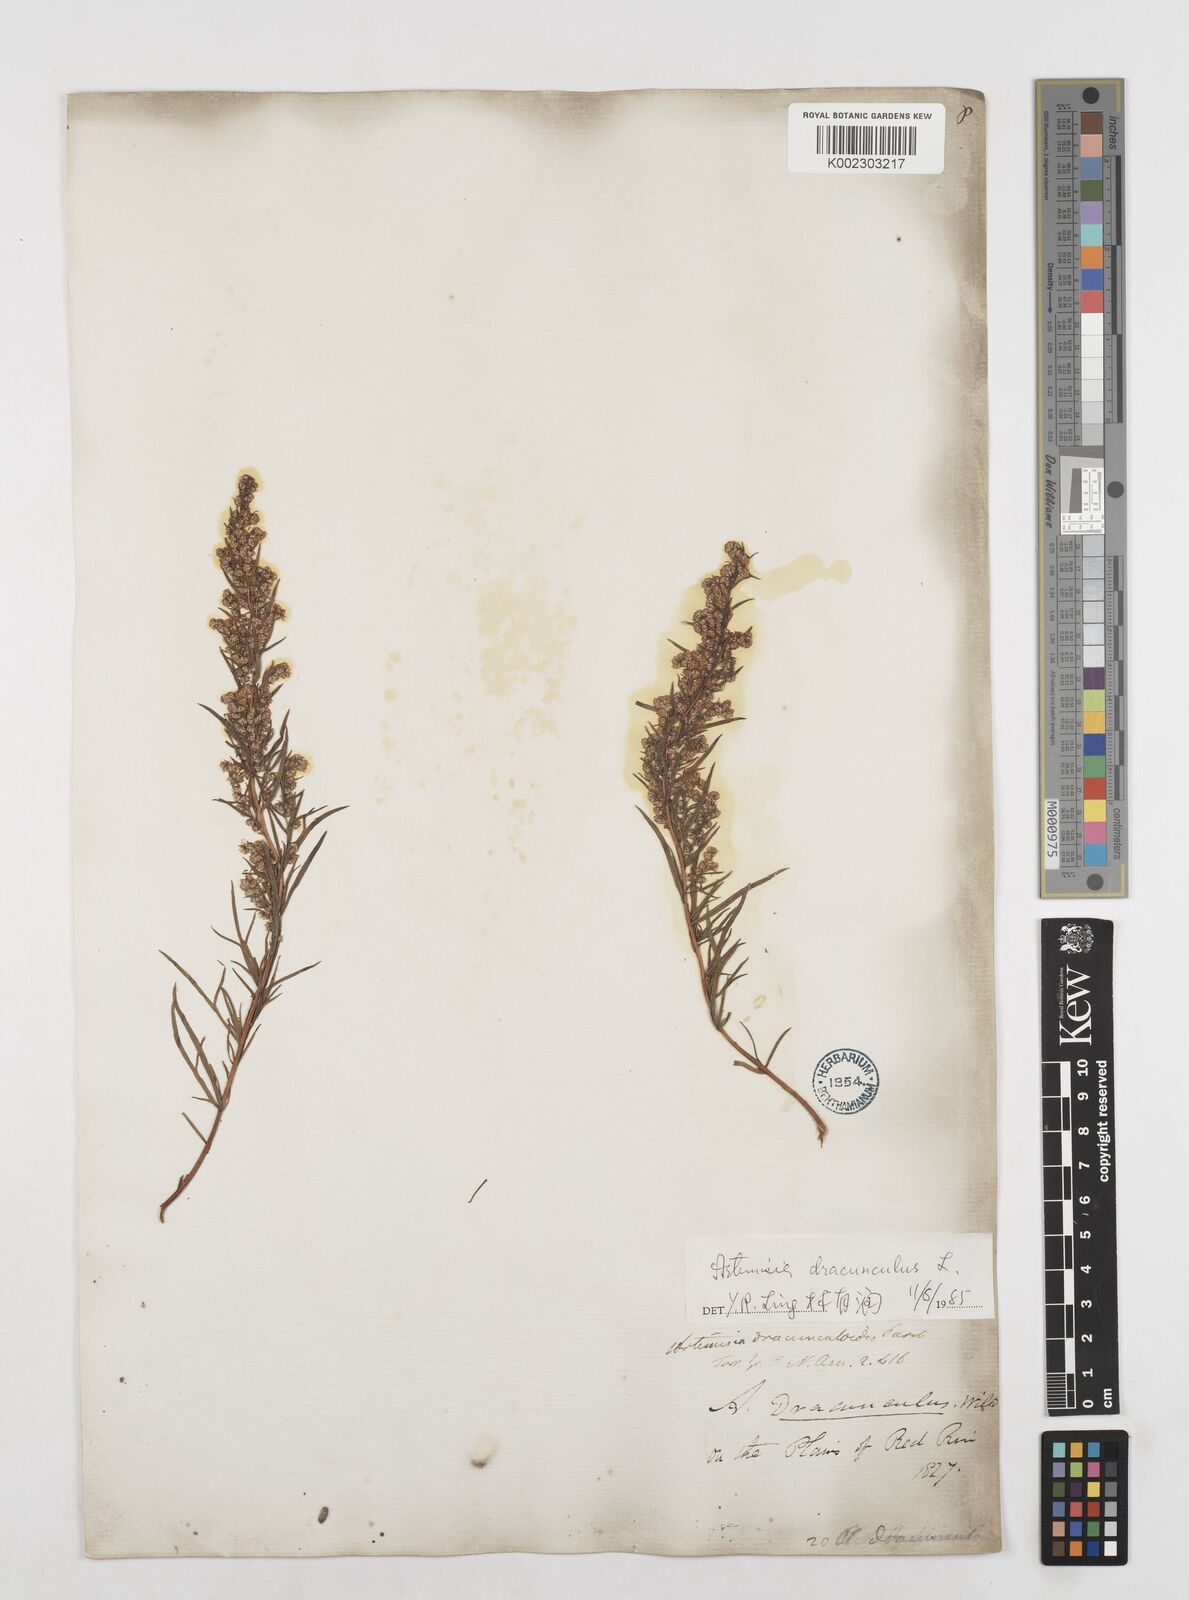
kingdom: Plantae
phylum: Tracheophyta
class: Magnoliopsida
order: Asterales
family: Asteraceae
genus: Artemisia
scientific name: Artemisia dracunculus
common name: Tarragon
